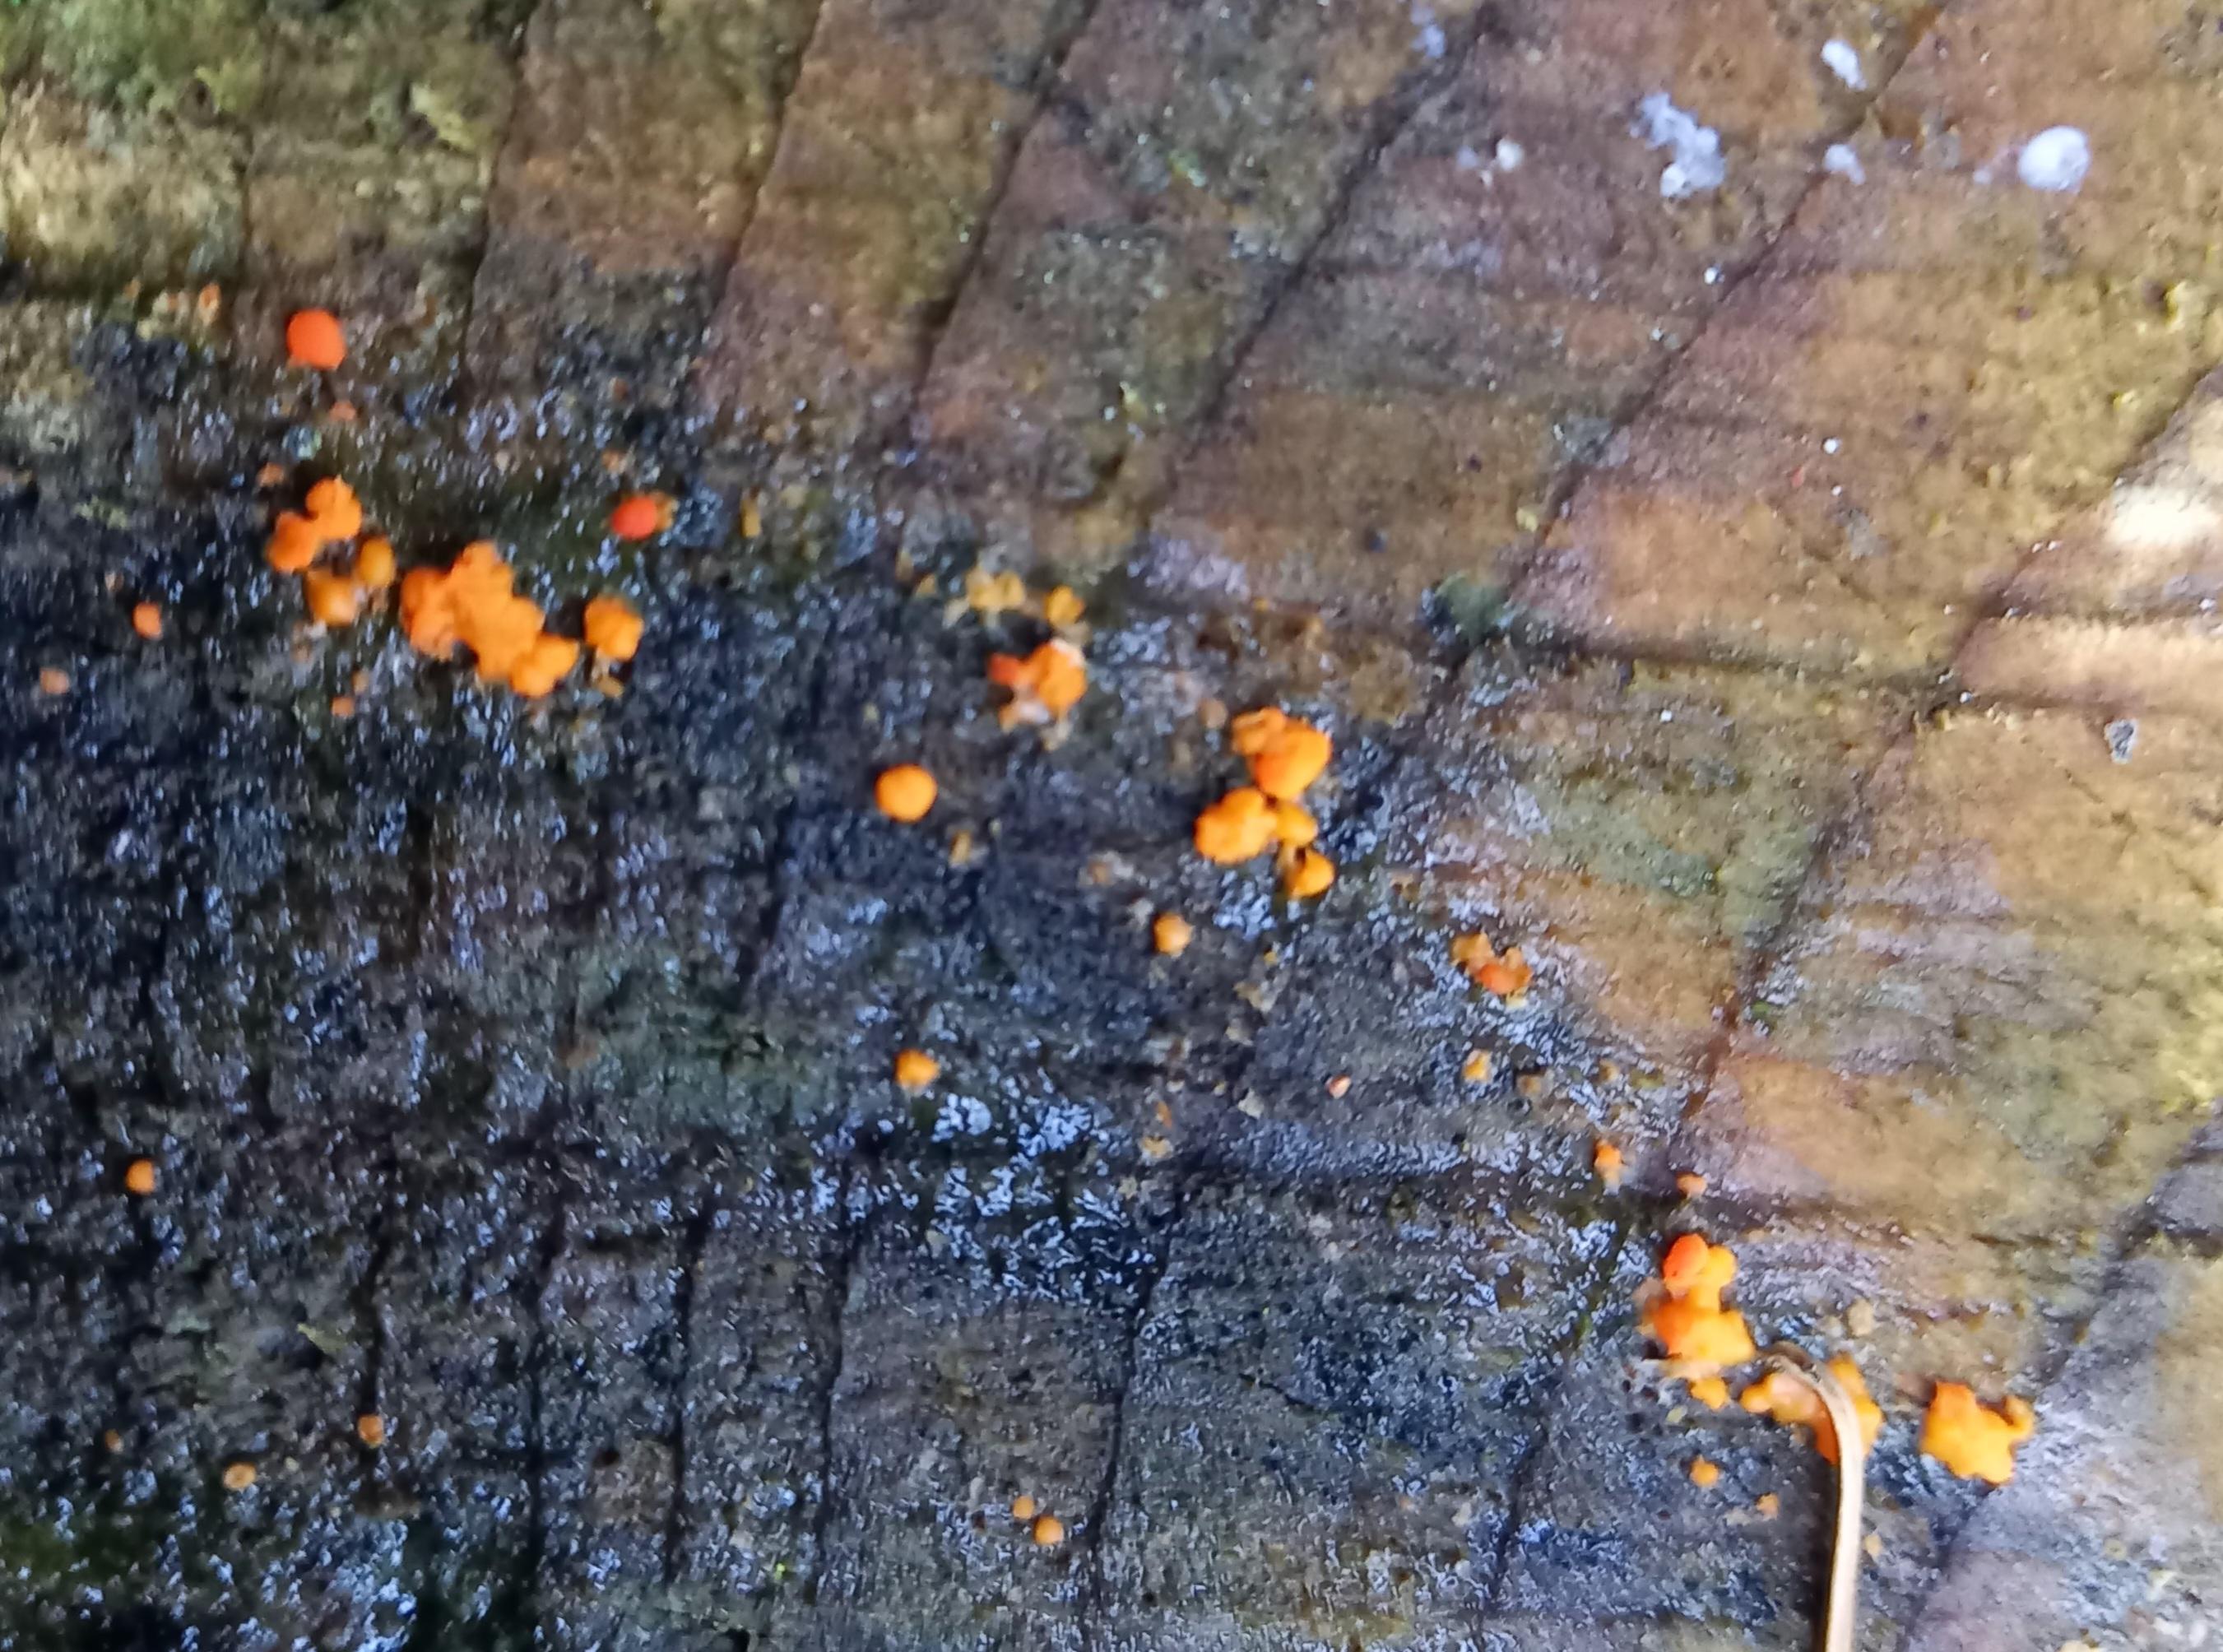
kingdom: Fungi
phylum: Basidiomycota
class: Dacrymycetes
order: Dacrymycetales
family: Dacrymycetaceae
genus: Dacrymyces
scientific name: Dacrymyces stillatus
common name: almindelig tåresvamp
